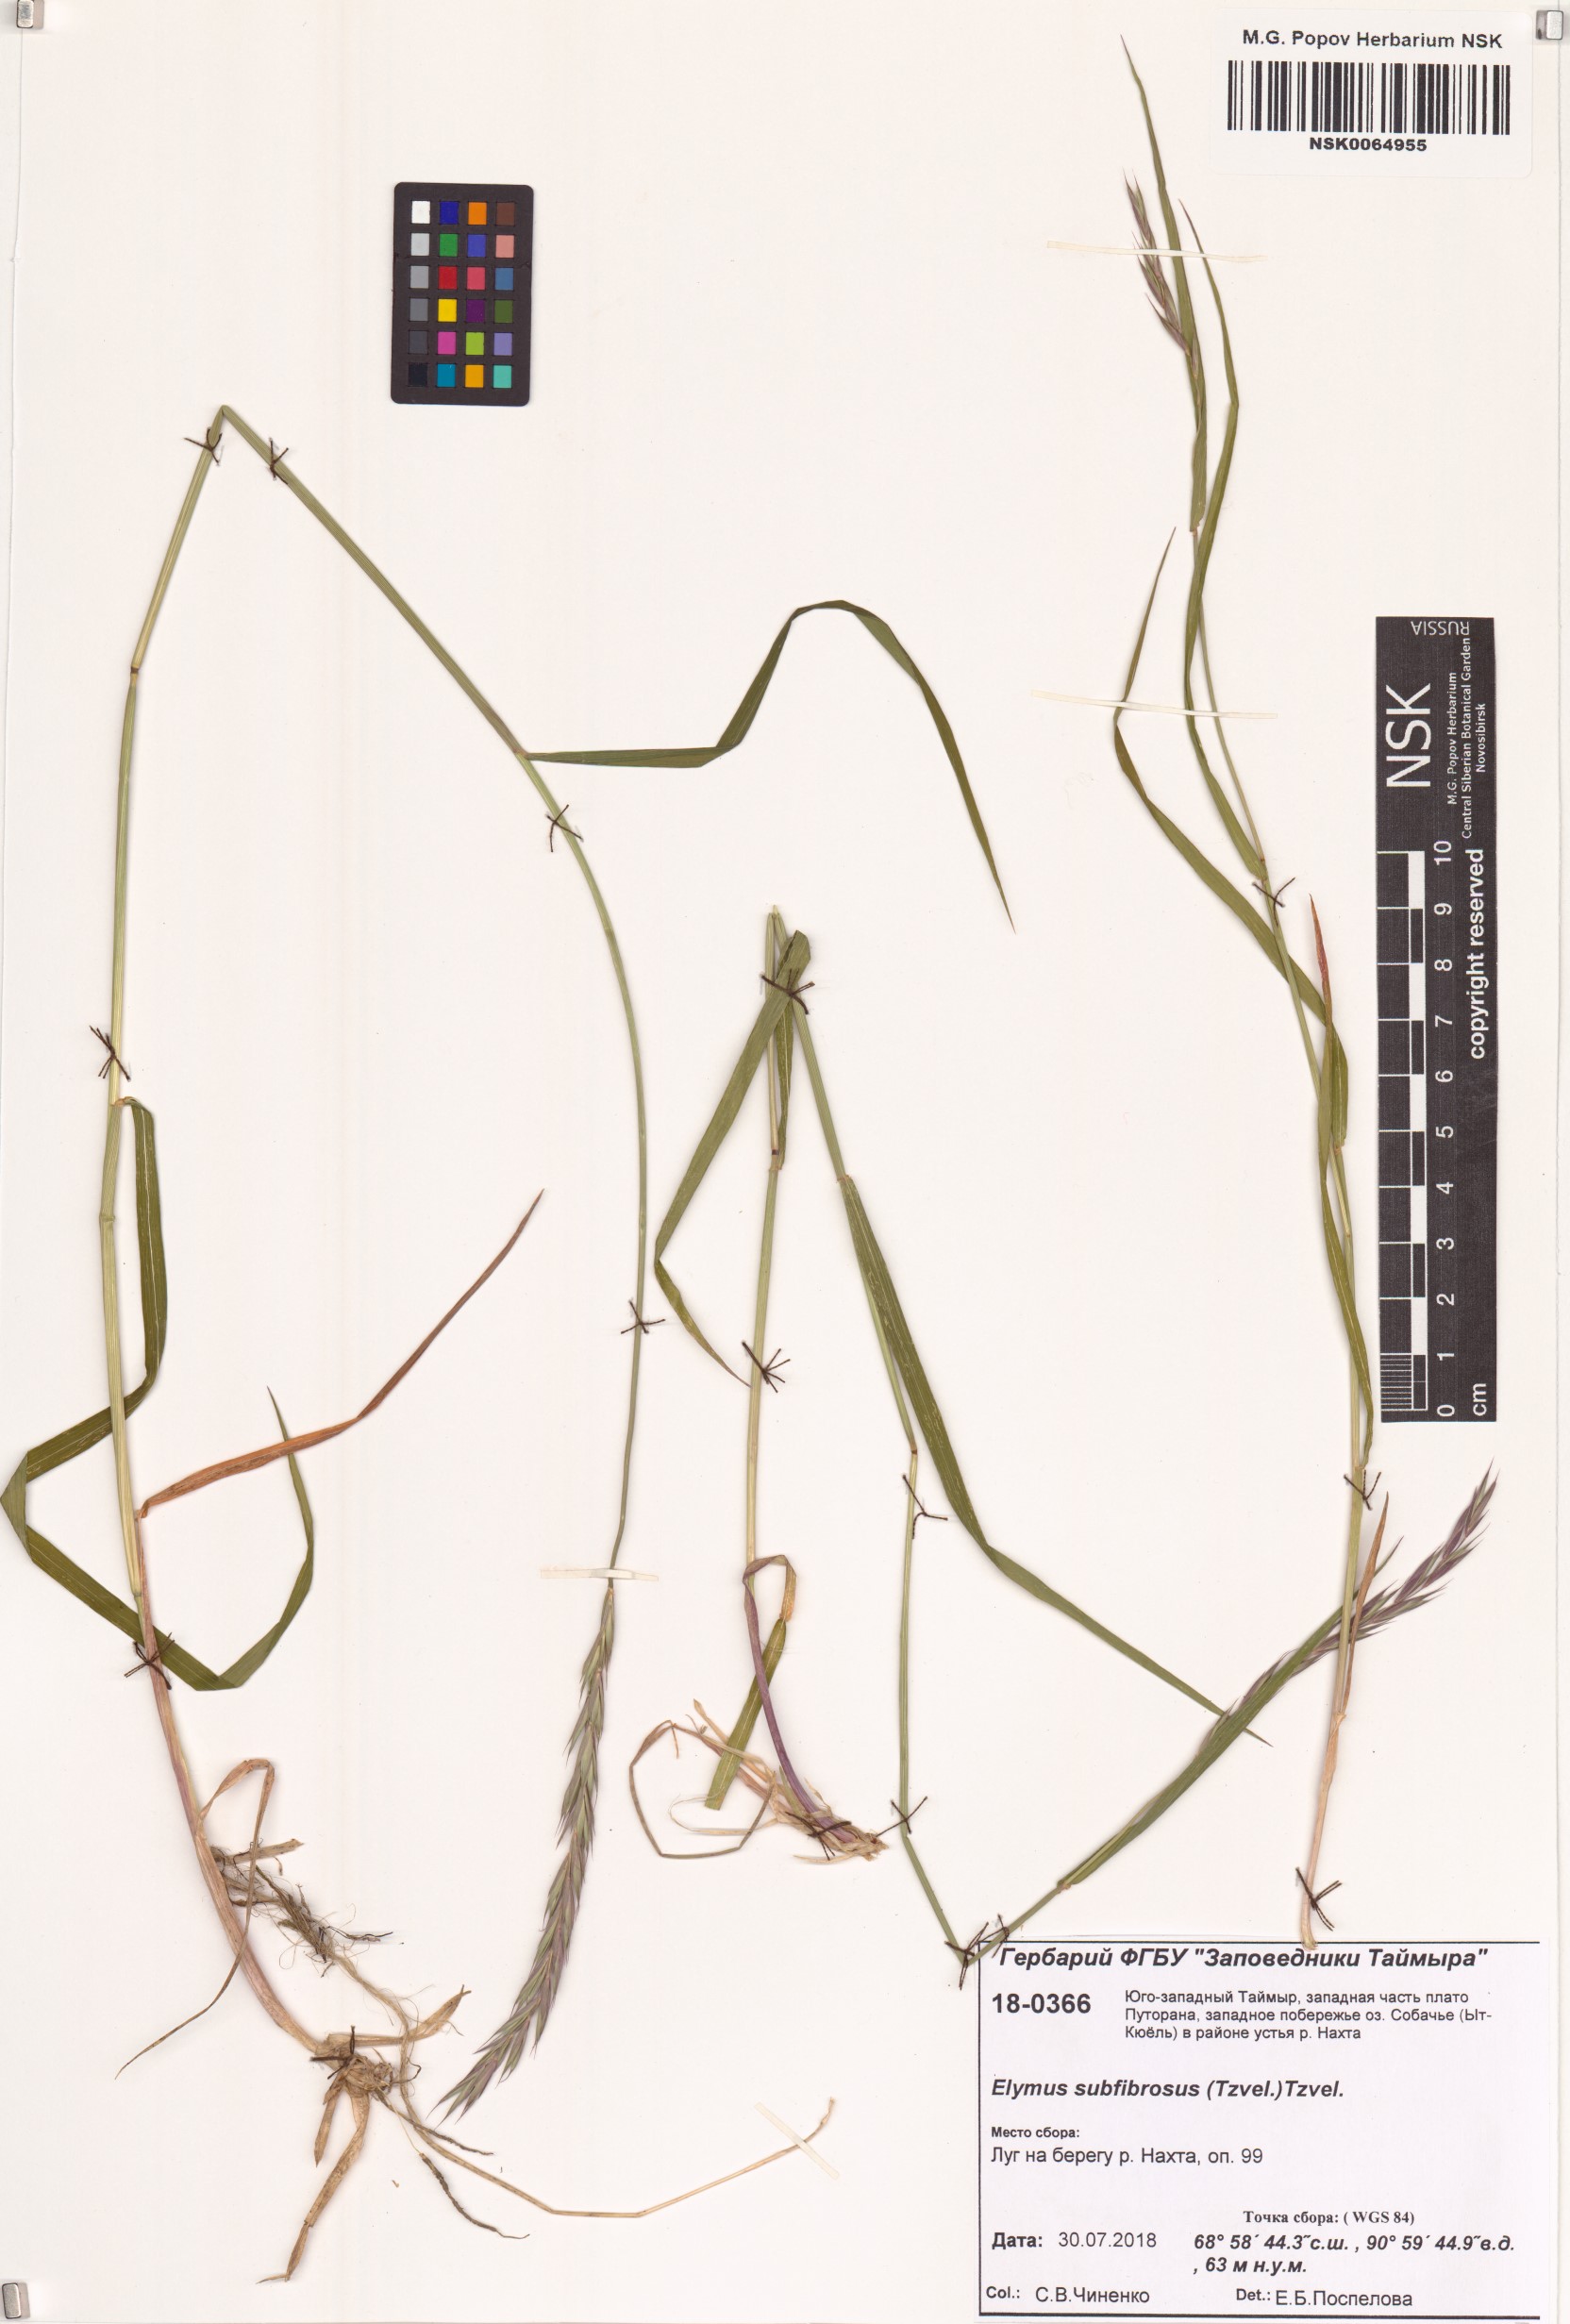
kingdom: Plantae
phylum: Tracheophyta
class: Liliopsida
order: Poales
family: Poaceae
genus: Elymus
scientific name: Elymus fibrosus
